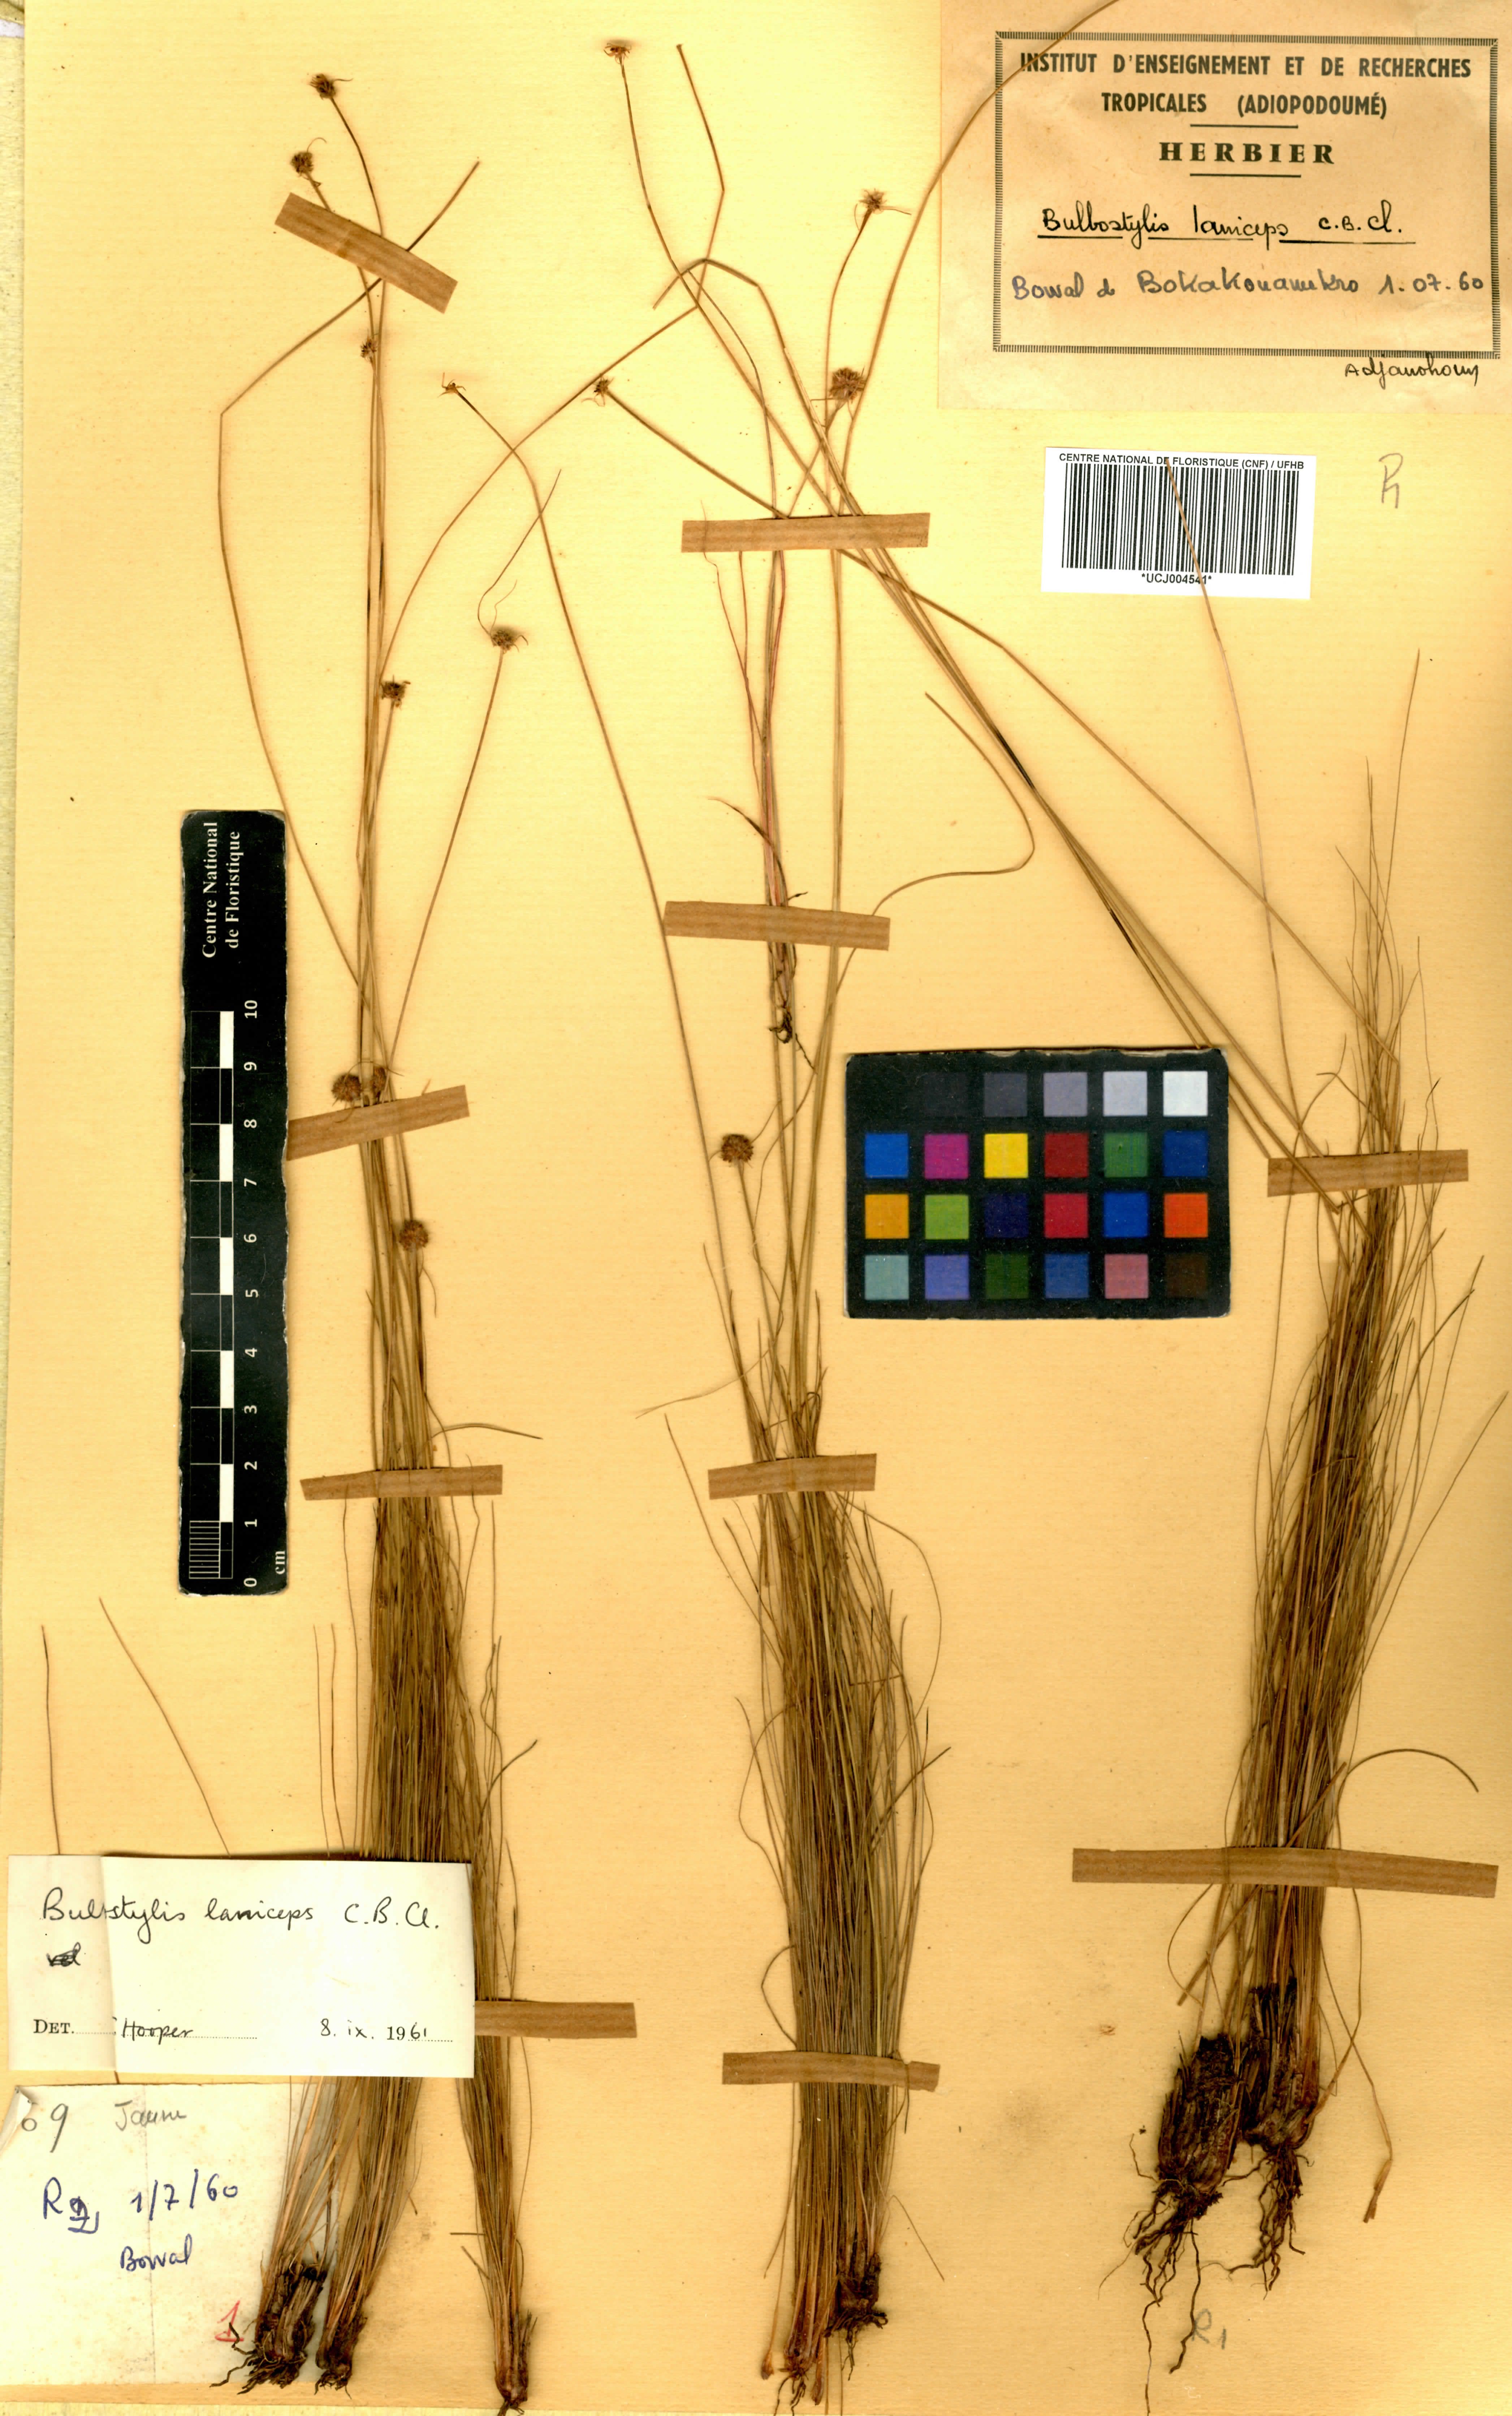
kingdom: Plantae
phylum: Tracheophyta
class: Liliopsida
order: Poales
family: Cyperaceae
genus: Bulbostylis
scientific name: Bulbostylis laniceps
